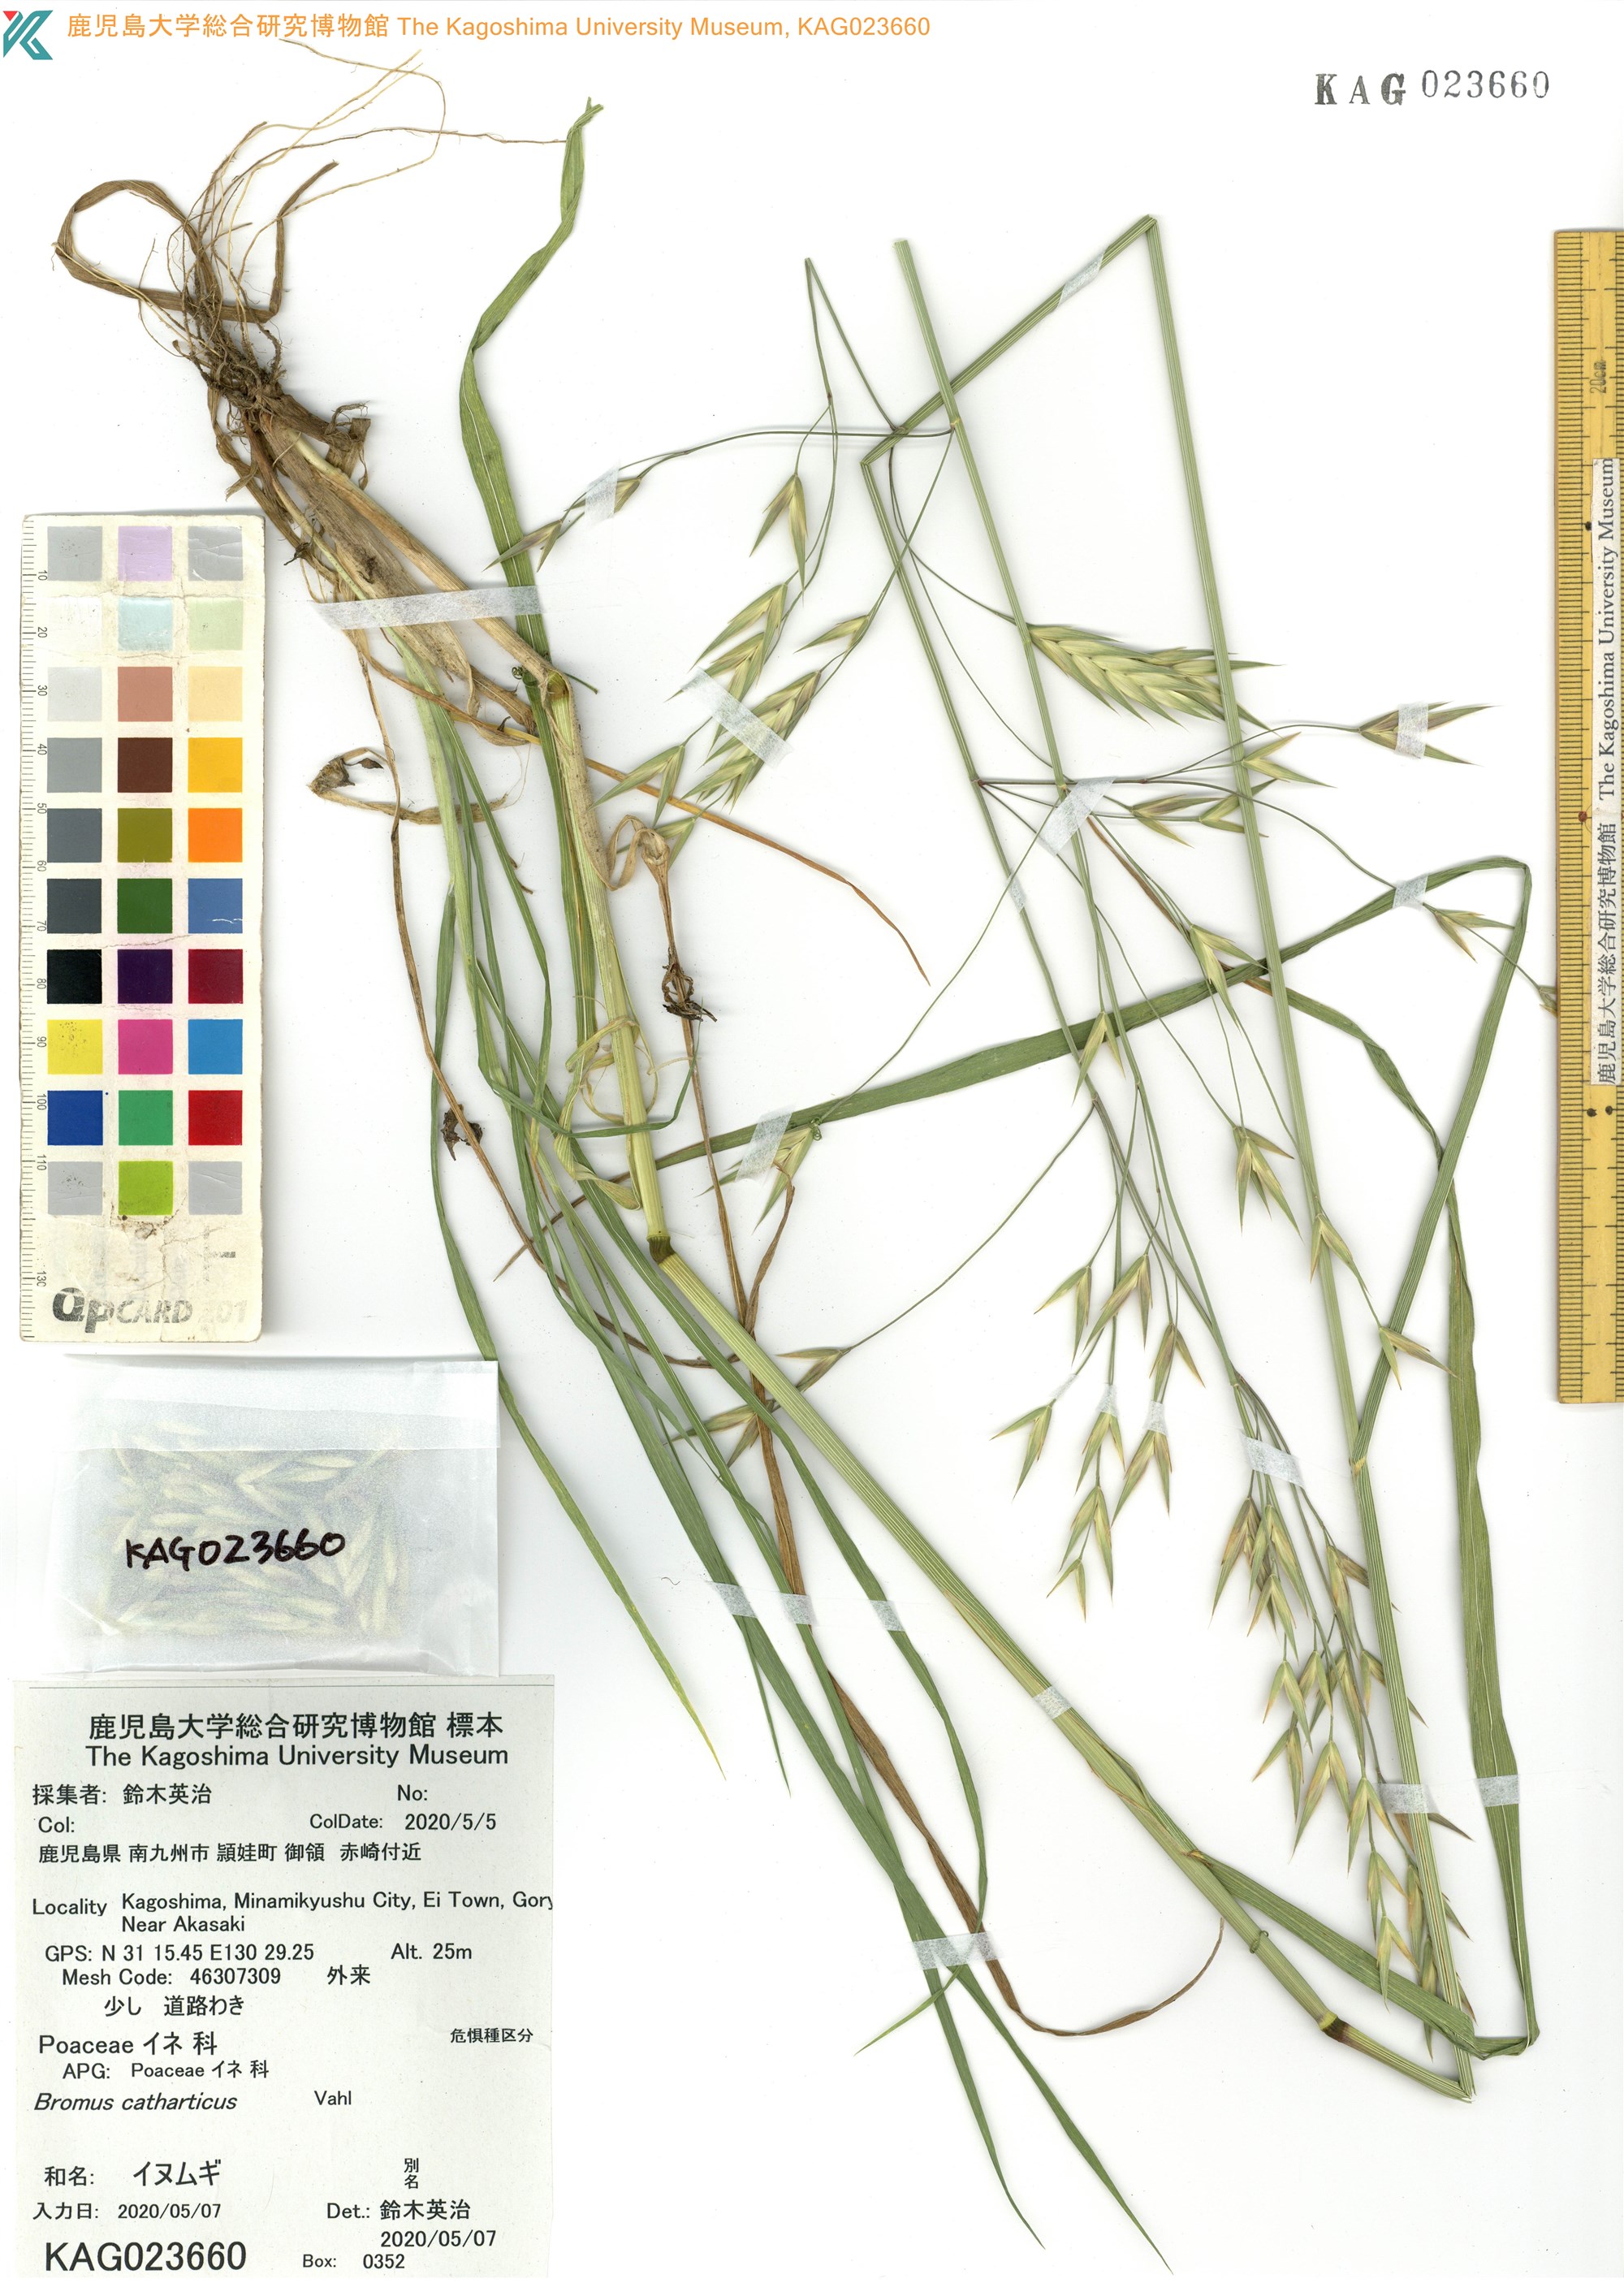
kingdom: Plantae
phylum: Tracheophyta
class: Liliopsida
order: Poales
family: Poaceae
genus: Bromus
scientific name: Bromus catharticus
